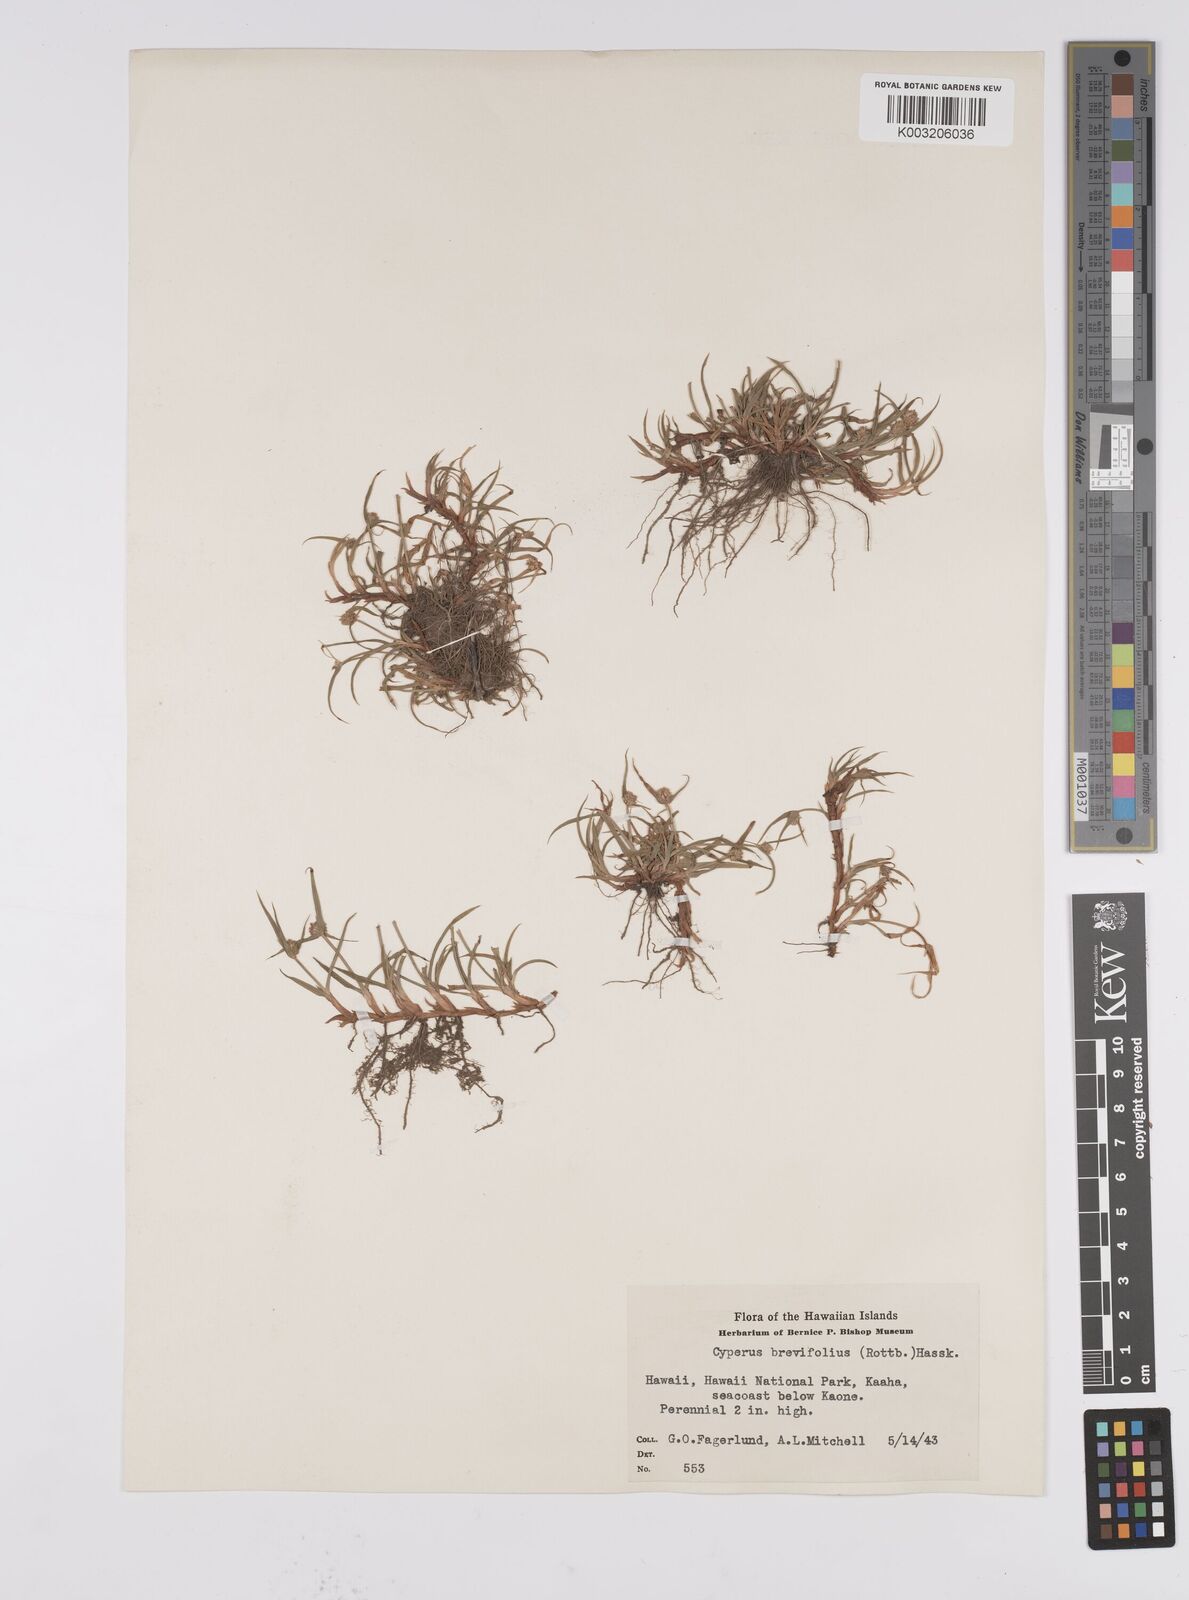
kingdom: Plantae
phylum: Tracheophyta
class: Liliopsida
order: Poales
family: Cyperaceae
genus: Cyperus
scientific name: Cyperus brevifolius
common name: Globe kyllinga
